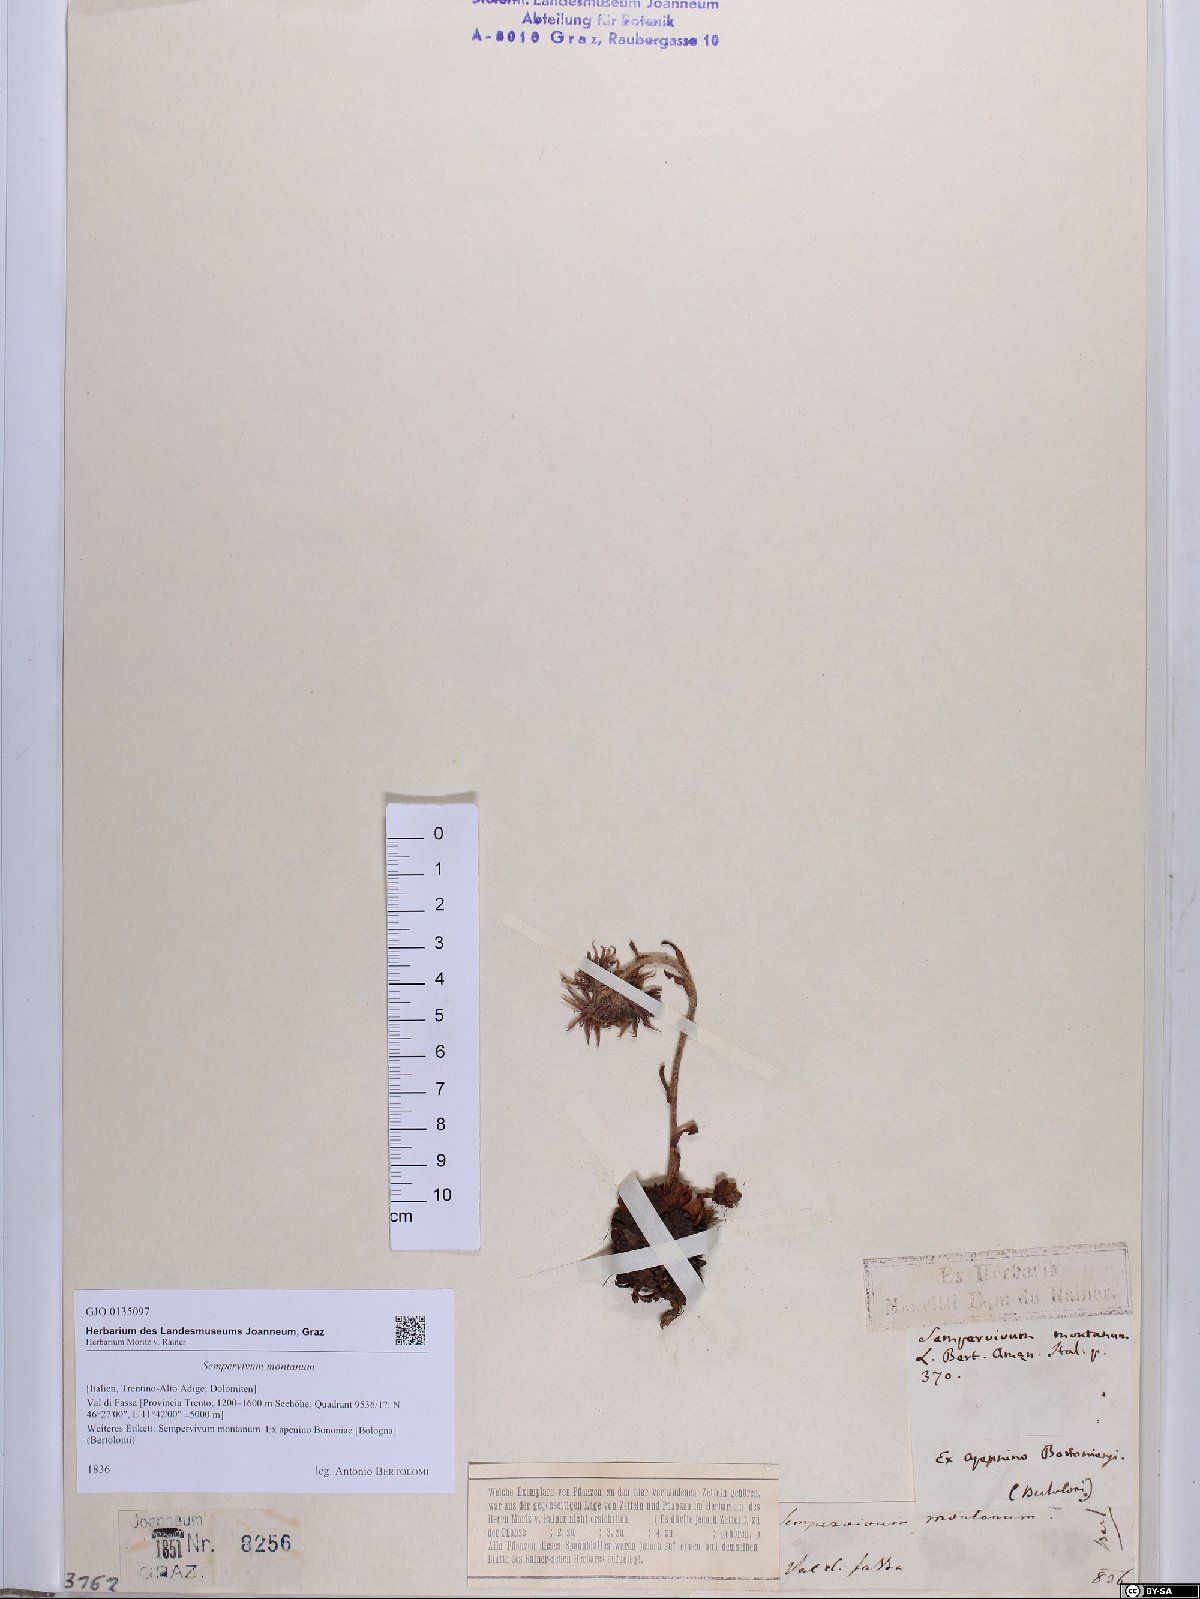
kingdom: Plantae
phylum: Tracheophyta
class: Magnoliopsida
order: Saxifragales
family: Crassulaceae
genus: Sempervivum
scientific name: Sempervivum montanum
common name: Mountain house-leek
